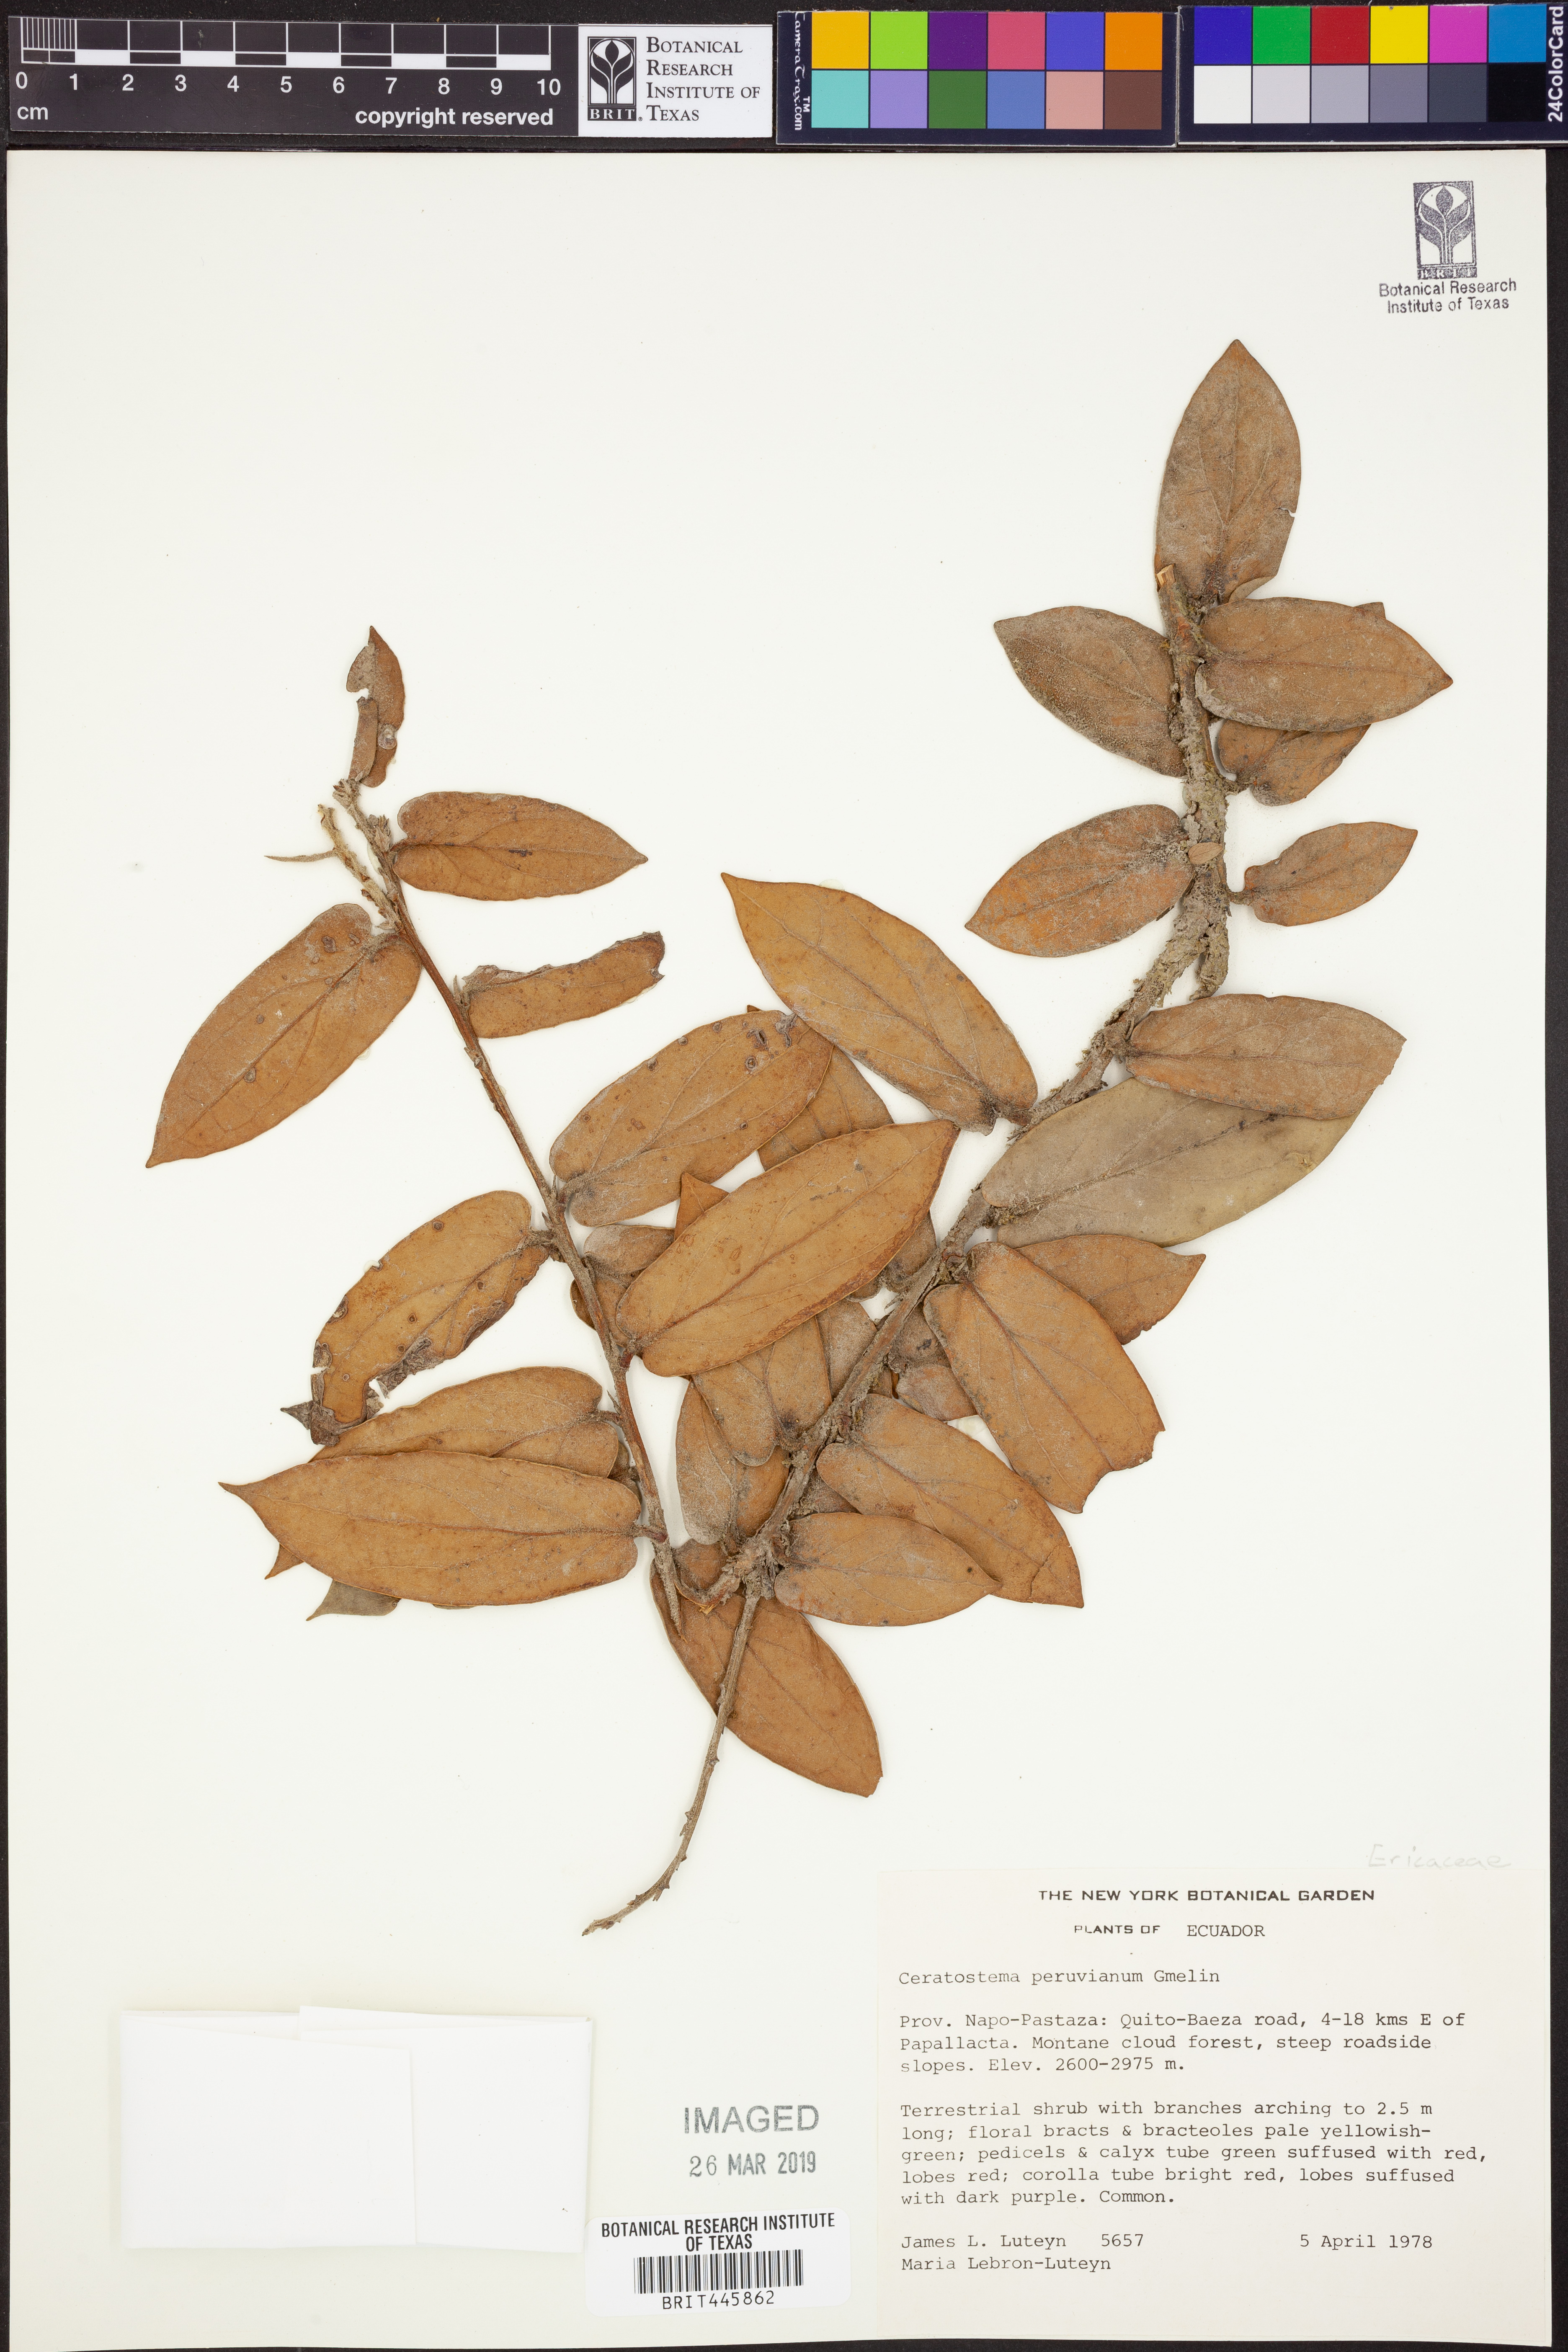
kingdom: Plantae
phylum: Tracheophyta
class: Magnoliopsida
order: Ericales
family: Ericaceae
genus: Ceratostema
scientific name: Ceratostema peruvianum
